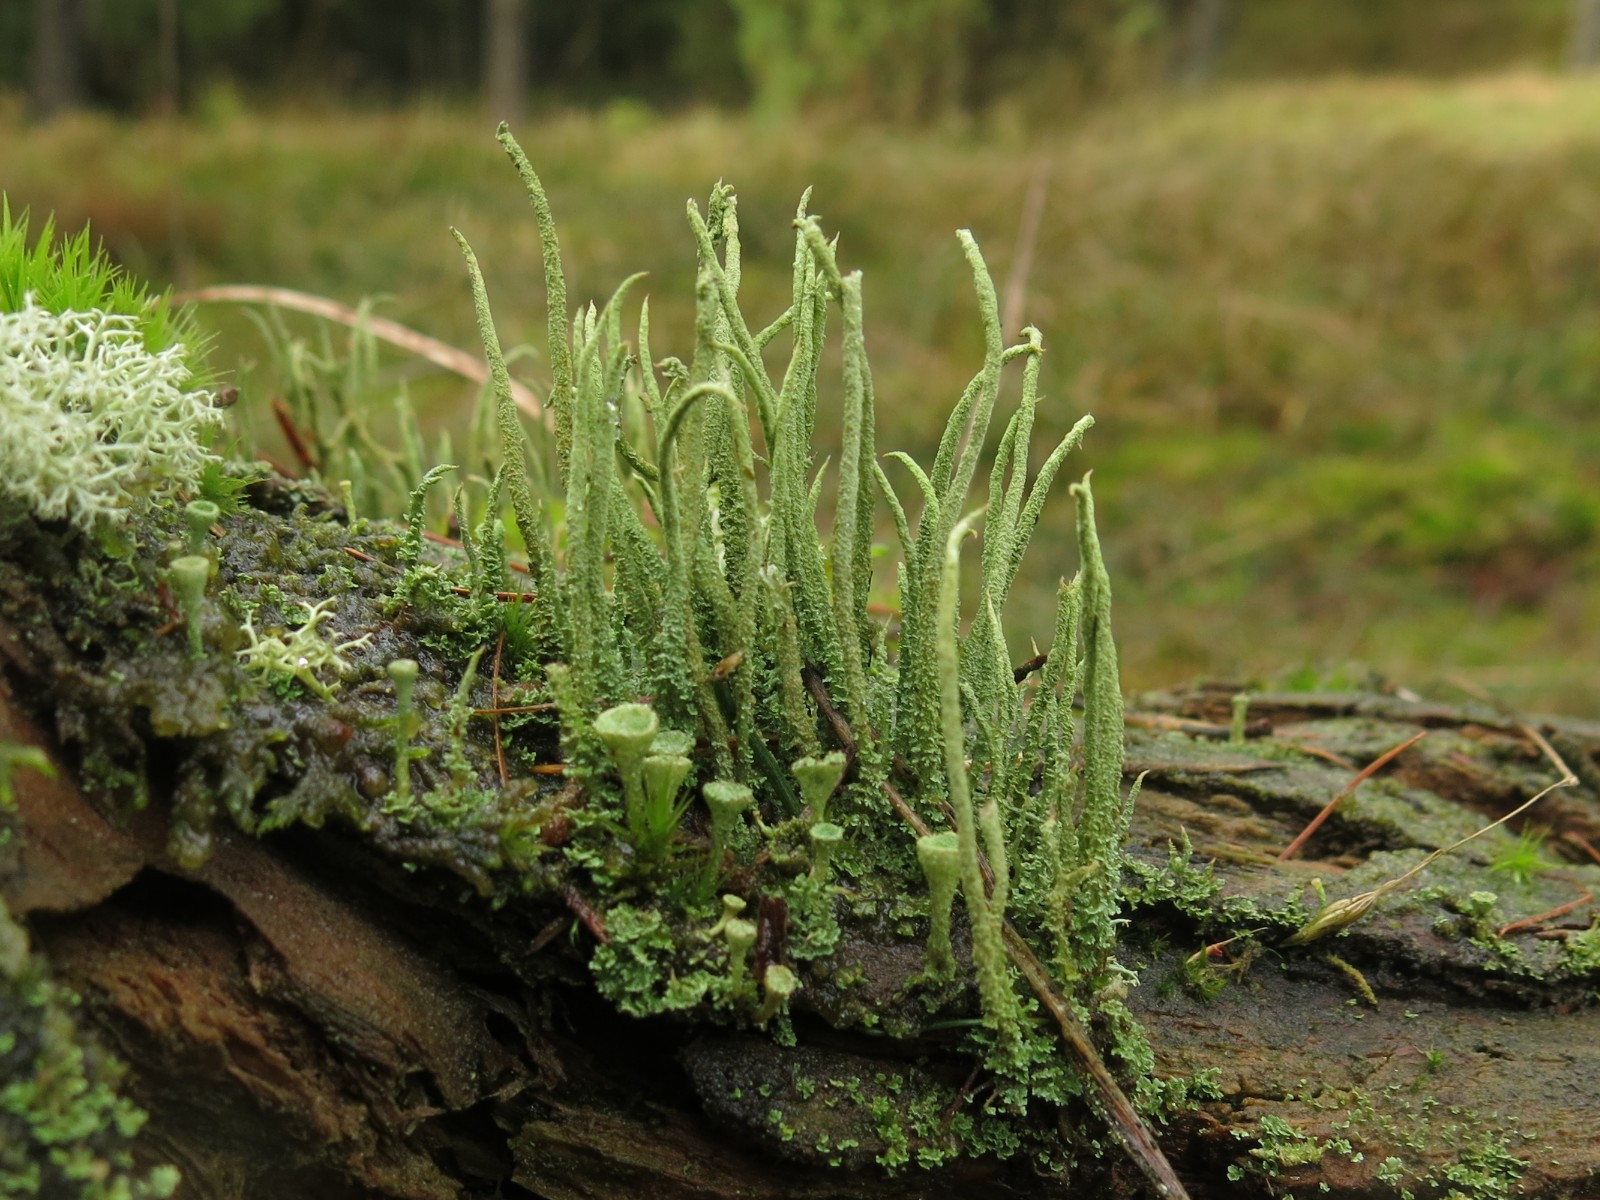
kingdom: Fungi
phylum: Ascomycota
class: Lecanoromycetes
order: Lecanorales
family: Cladoniaceae
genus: Cladonia
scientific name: Cladonia glauca
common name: grågrøn bægerlav
